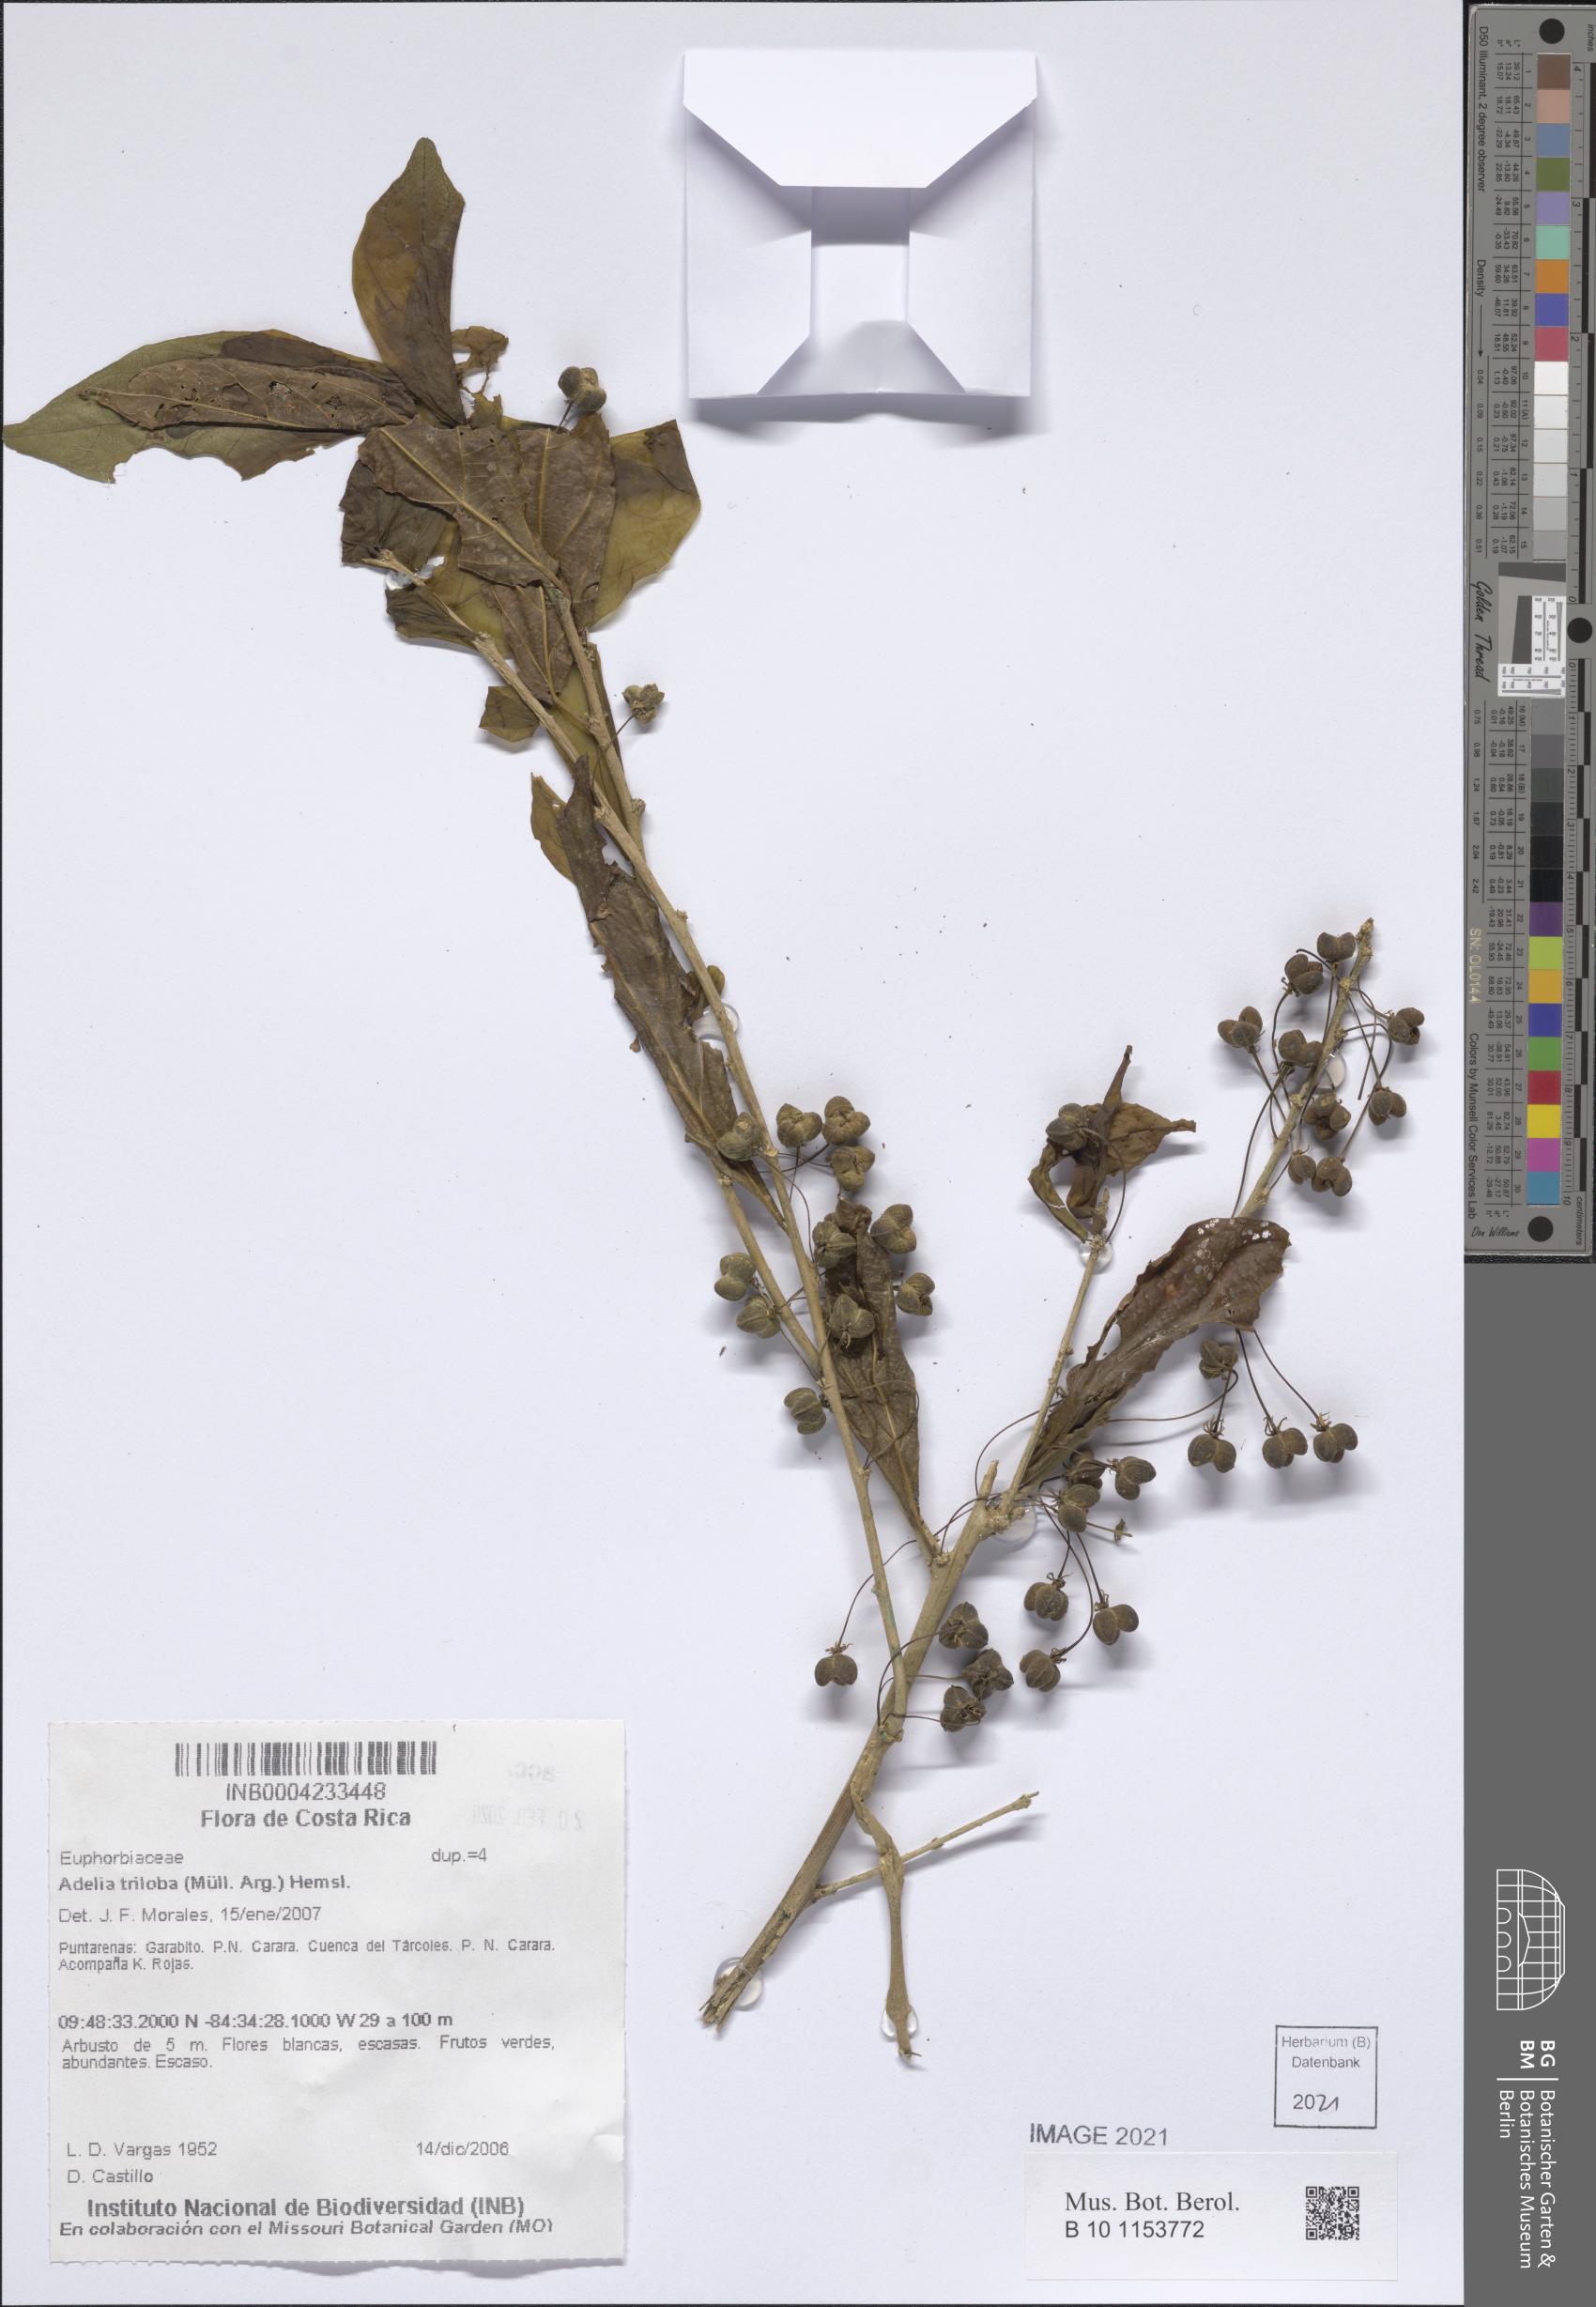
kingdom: Plantae
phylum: Tracheophyta
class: Magnoliopsida
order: Dipsacales
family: Caprifoliaceae
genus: Zabelia
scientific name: Zabelia triflora
